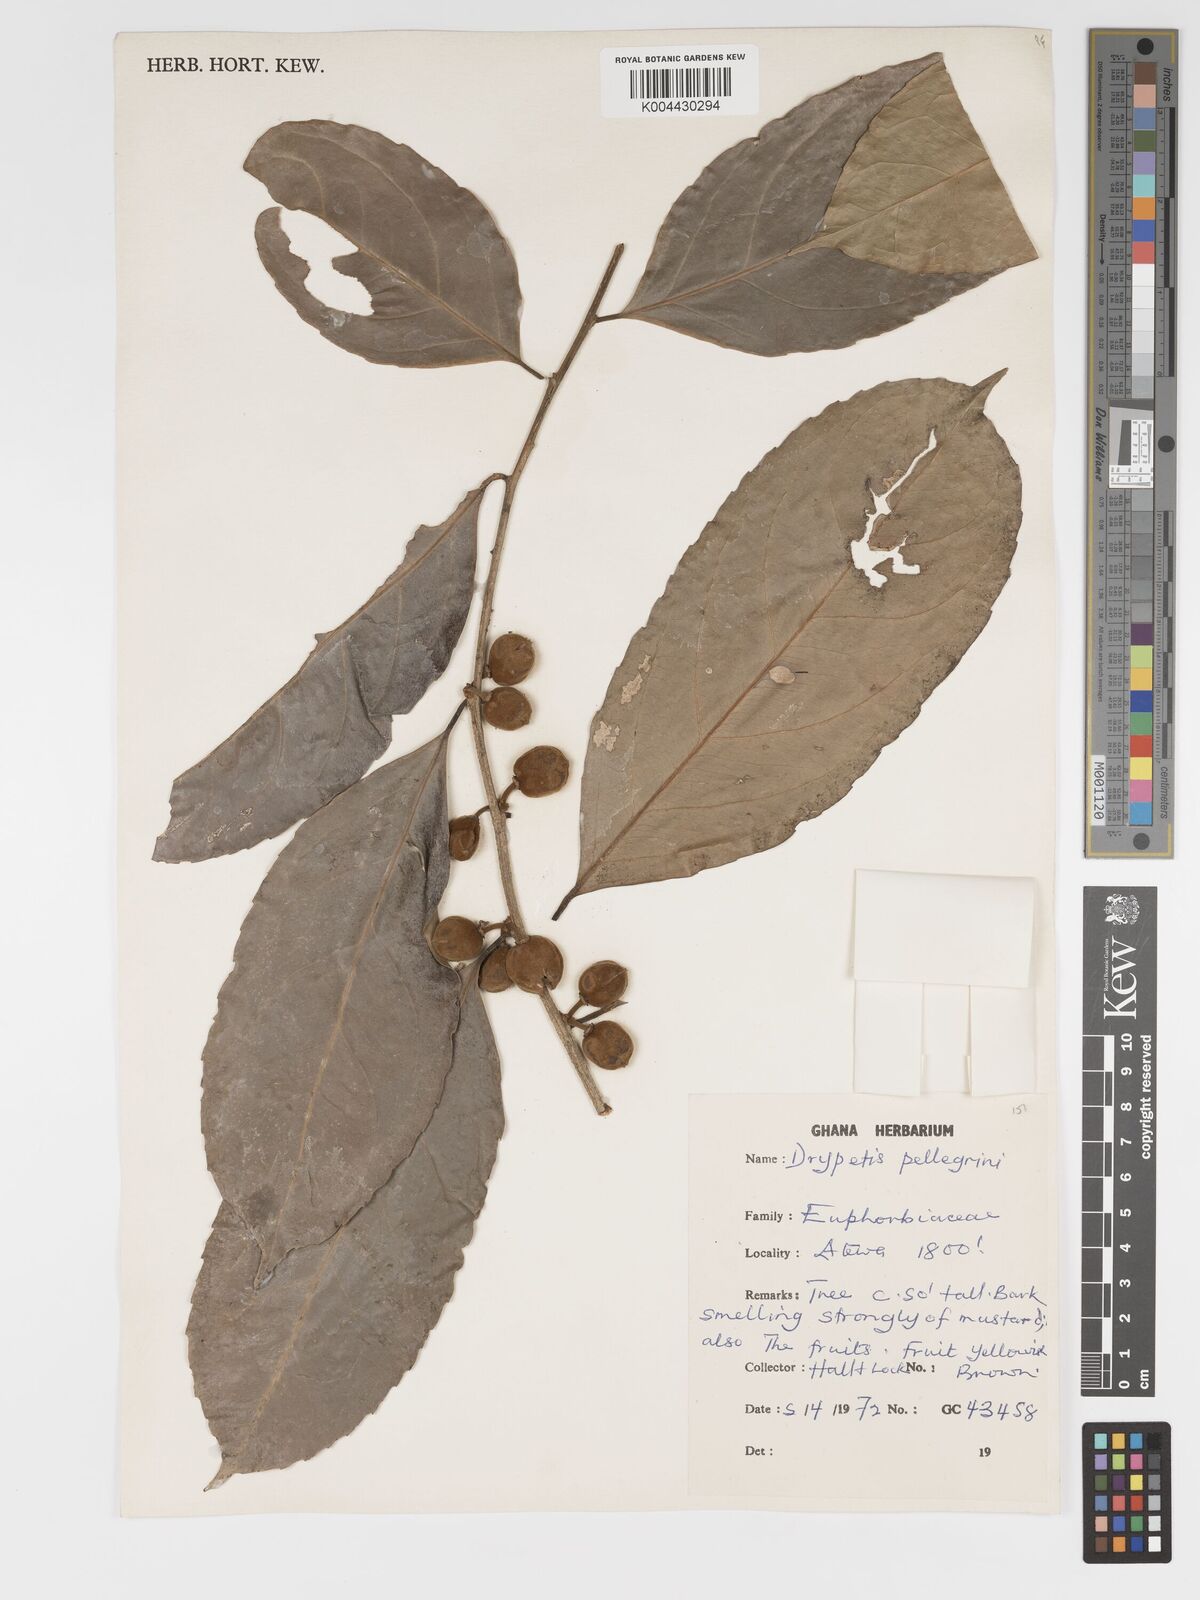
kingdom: Plantae
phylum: Tracheophyta
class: Magnoliopsida
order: Malpighiales
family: Putranjivaceae
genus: Drypetes
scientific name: Drypetes pellegrinii
